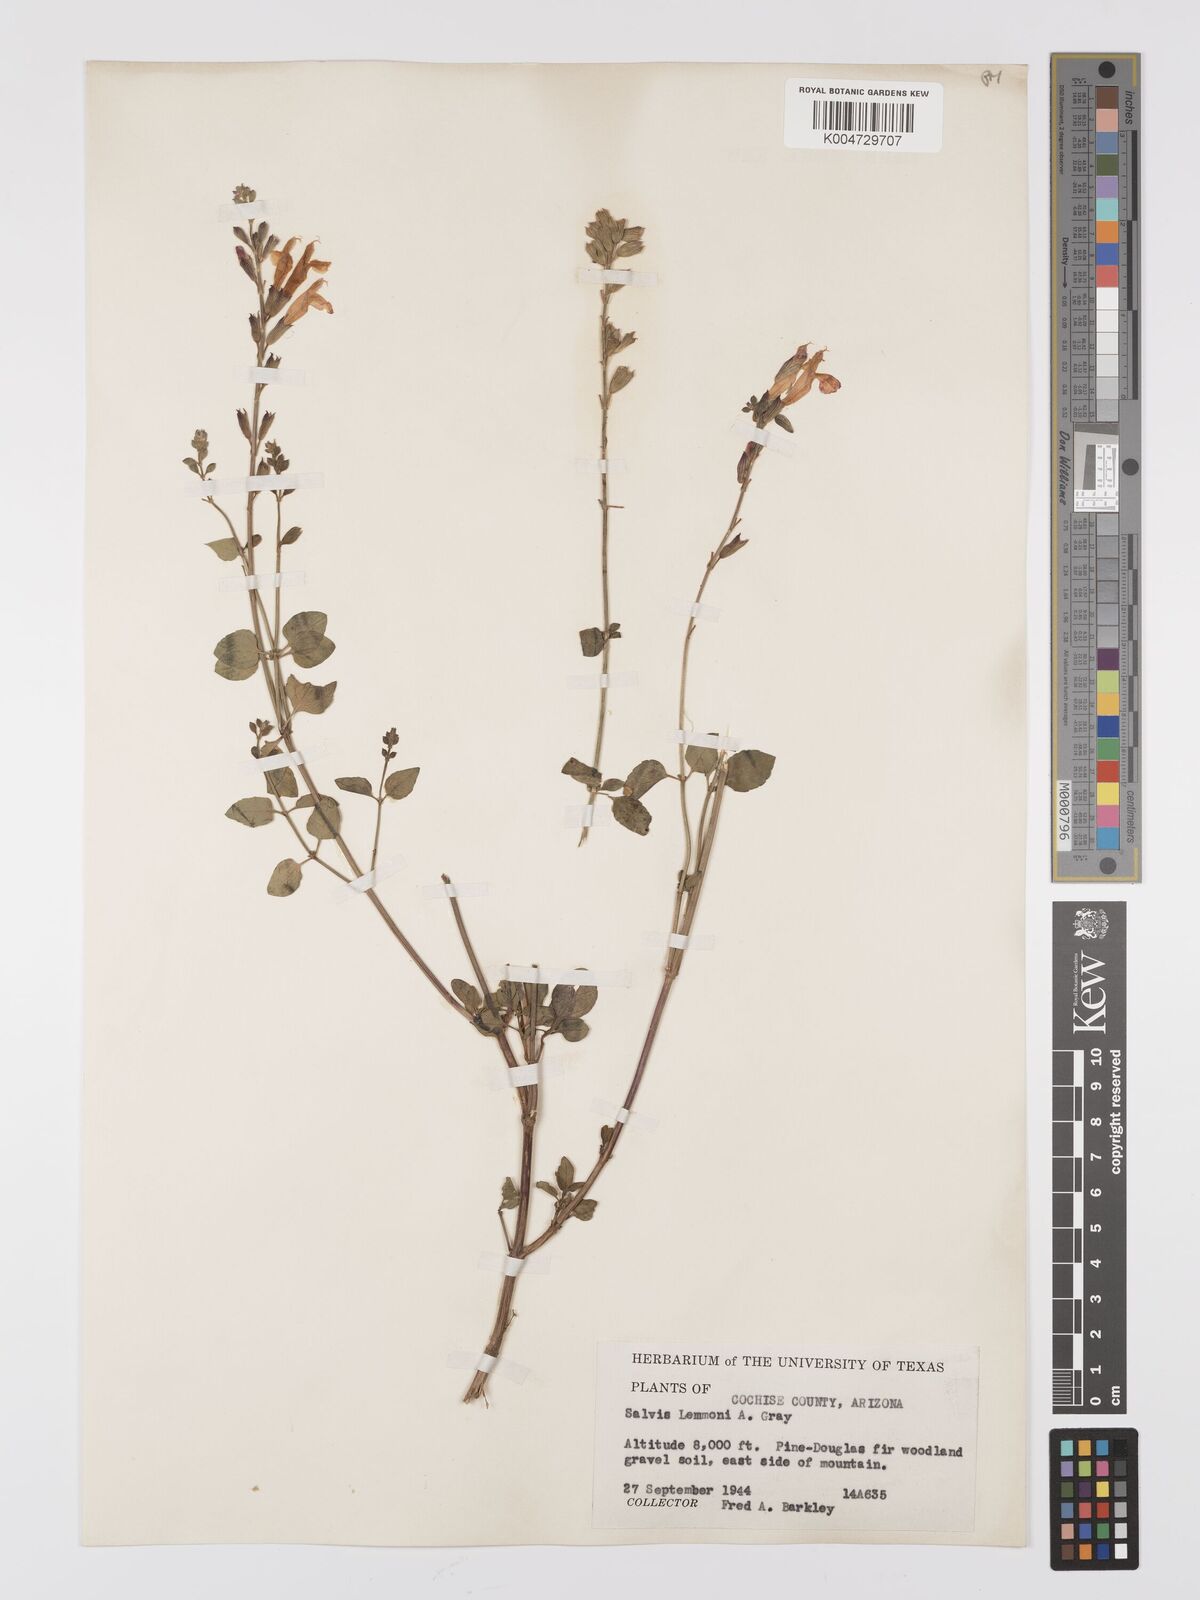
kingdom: Plantae
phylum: Tracheophyta
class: Magnoliopsida
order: Lamiales
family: Lamiaceae
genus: Salvia
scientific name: Salvia
